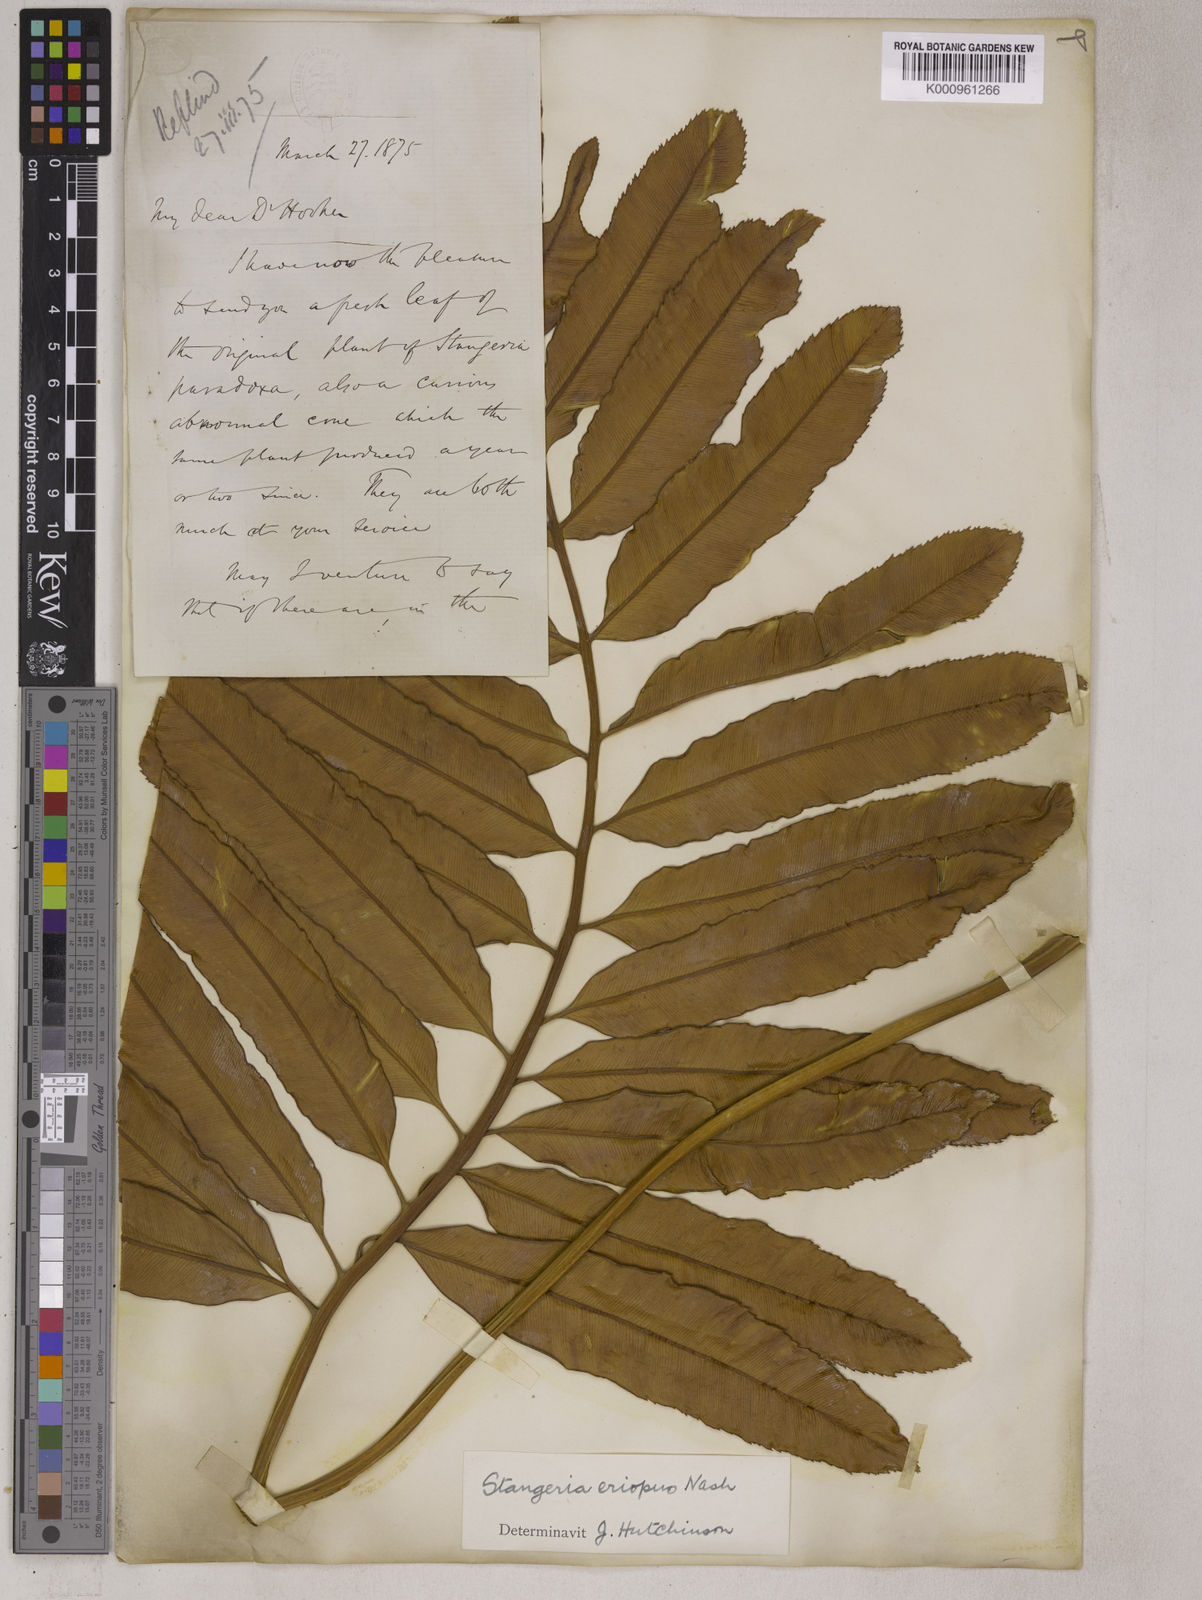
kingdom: Plantae
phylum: Tracheophyta
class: Cycadopsida
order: Cycadales
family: Zamiaceae
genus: Stangeria
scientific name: Stangeria eriopus
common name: Natal grass cycad
